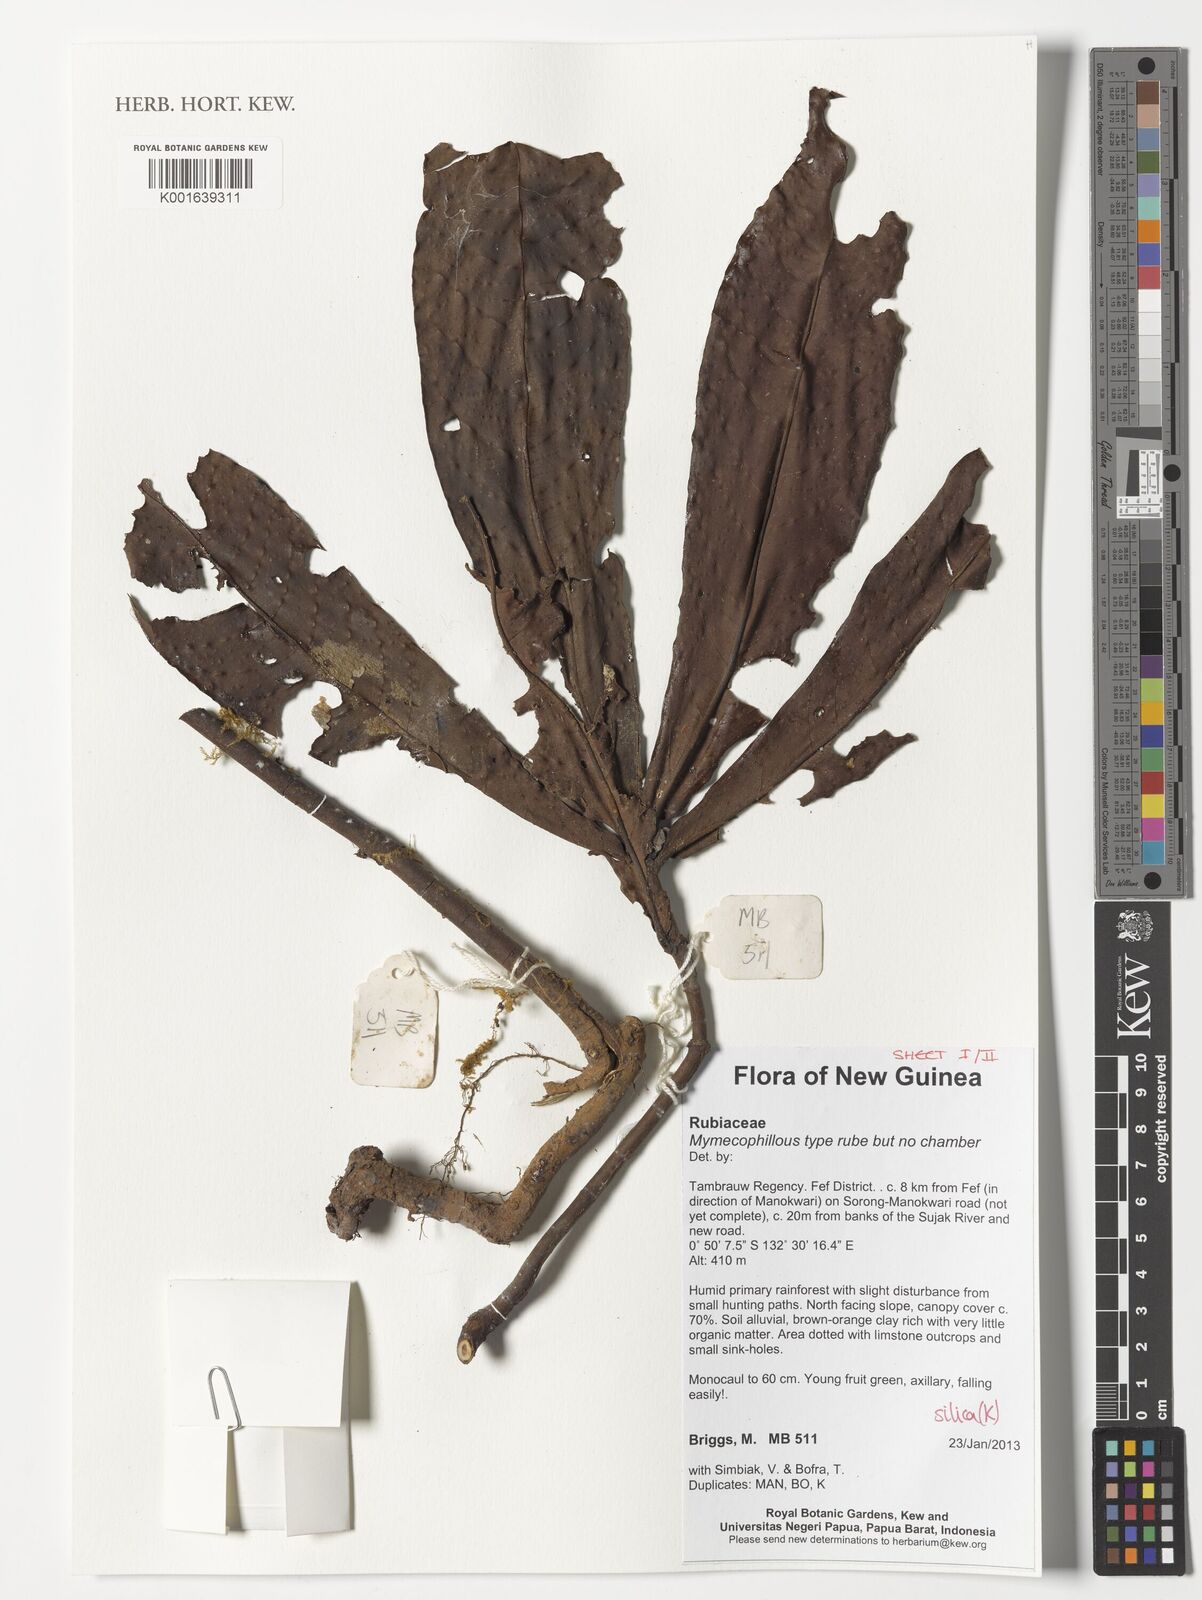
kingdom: Plantae
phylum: Tracheophyta
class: Magnoliopsida
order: Gentianales
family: Rubiaceae
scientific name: Rubiaceae
